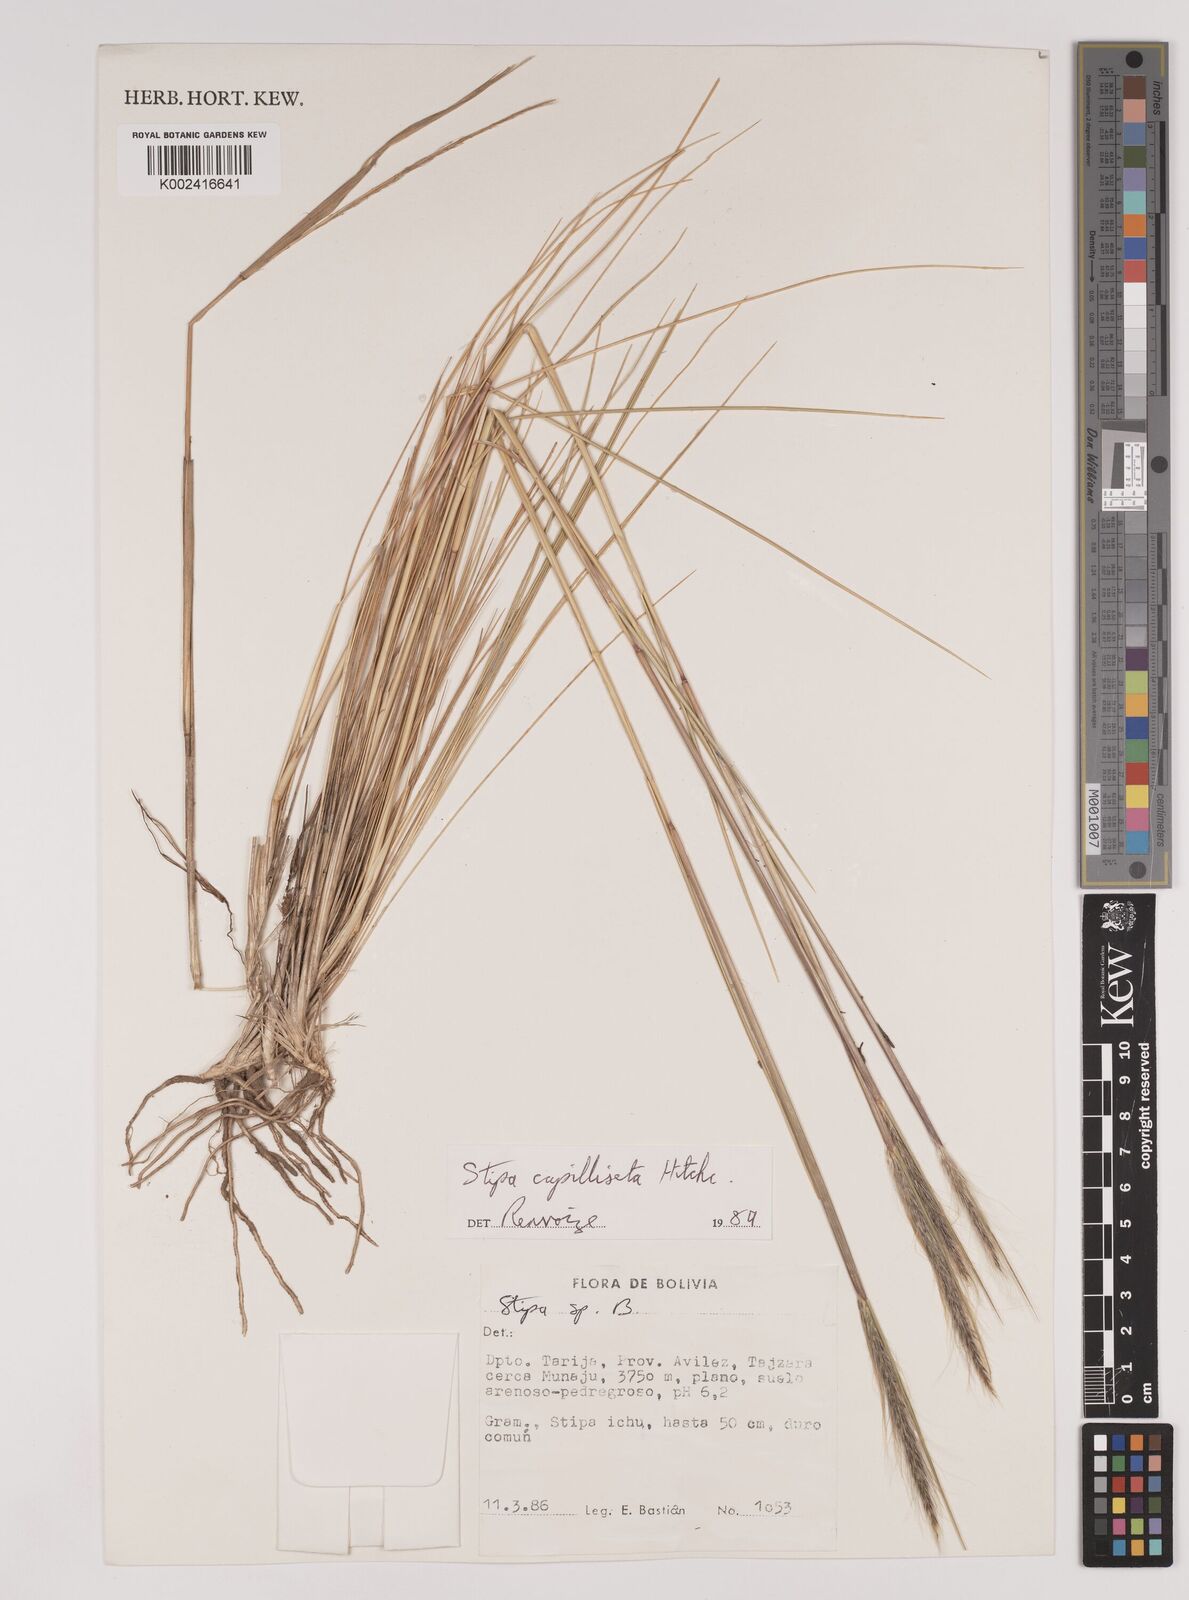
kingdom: Plantae
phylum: Tracheophyta
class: Liliopsida
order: Poales
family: Poaceae
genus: Jarava
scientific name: Jarava leptostachya
